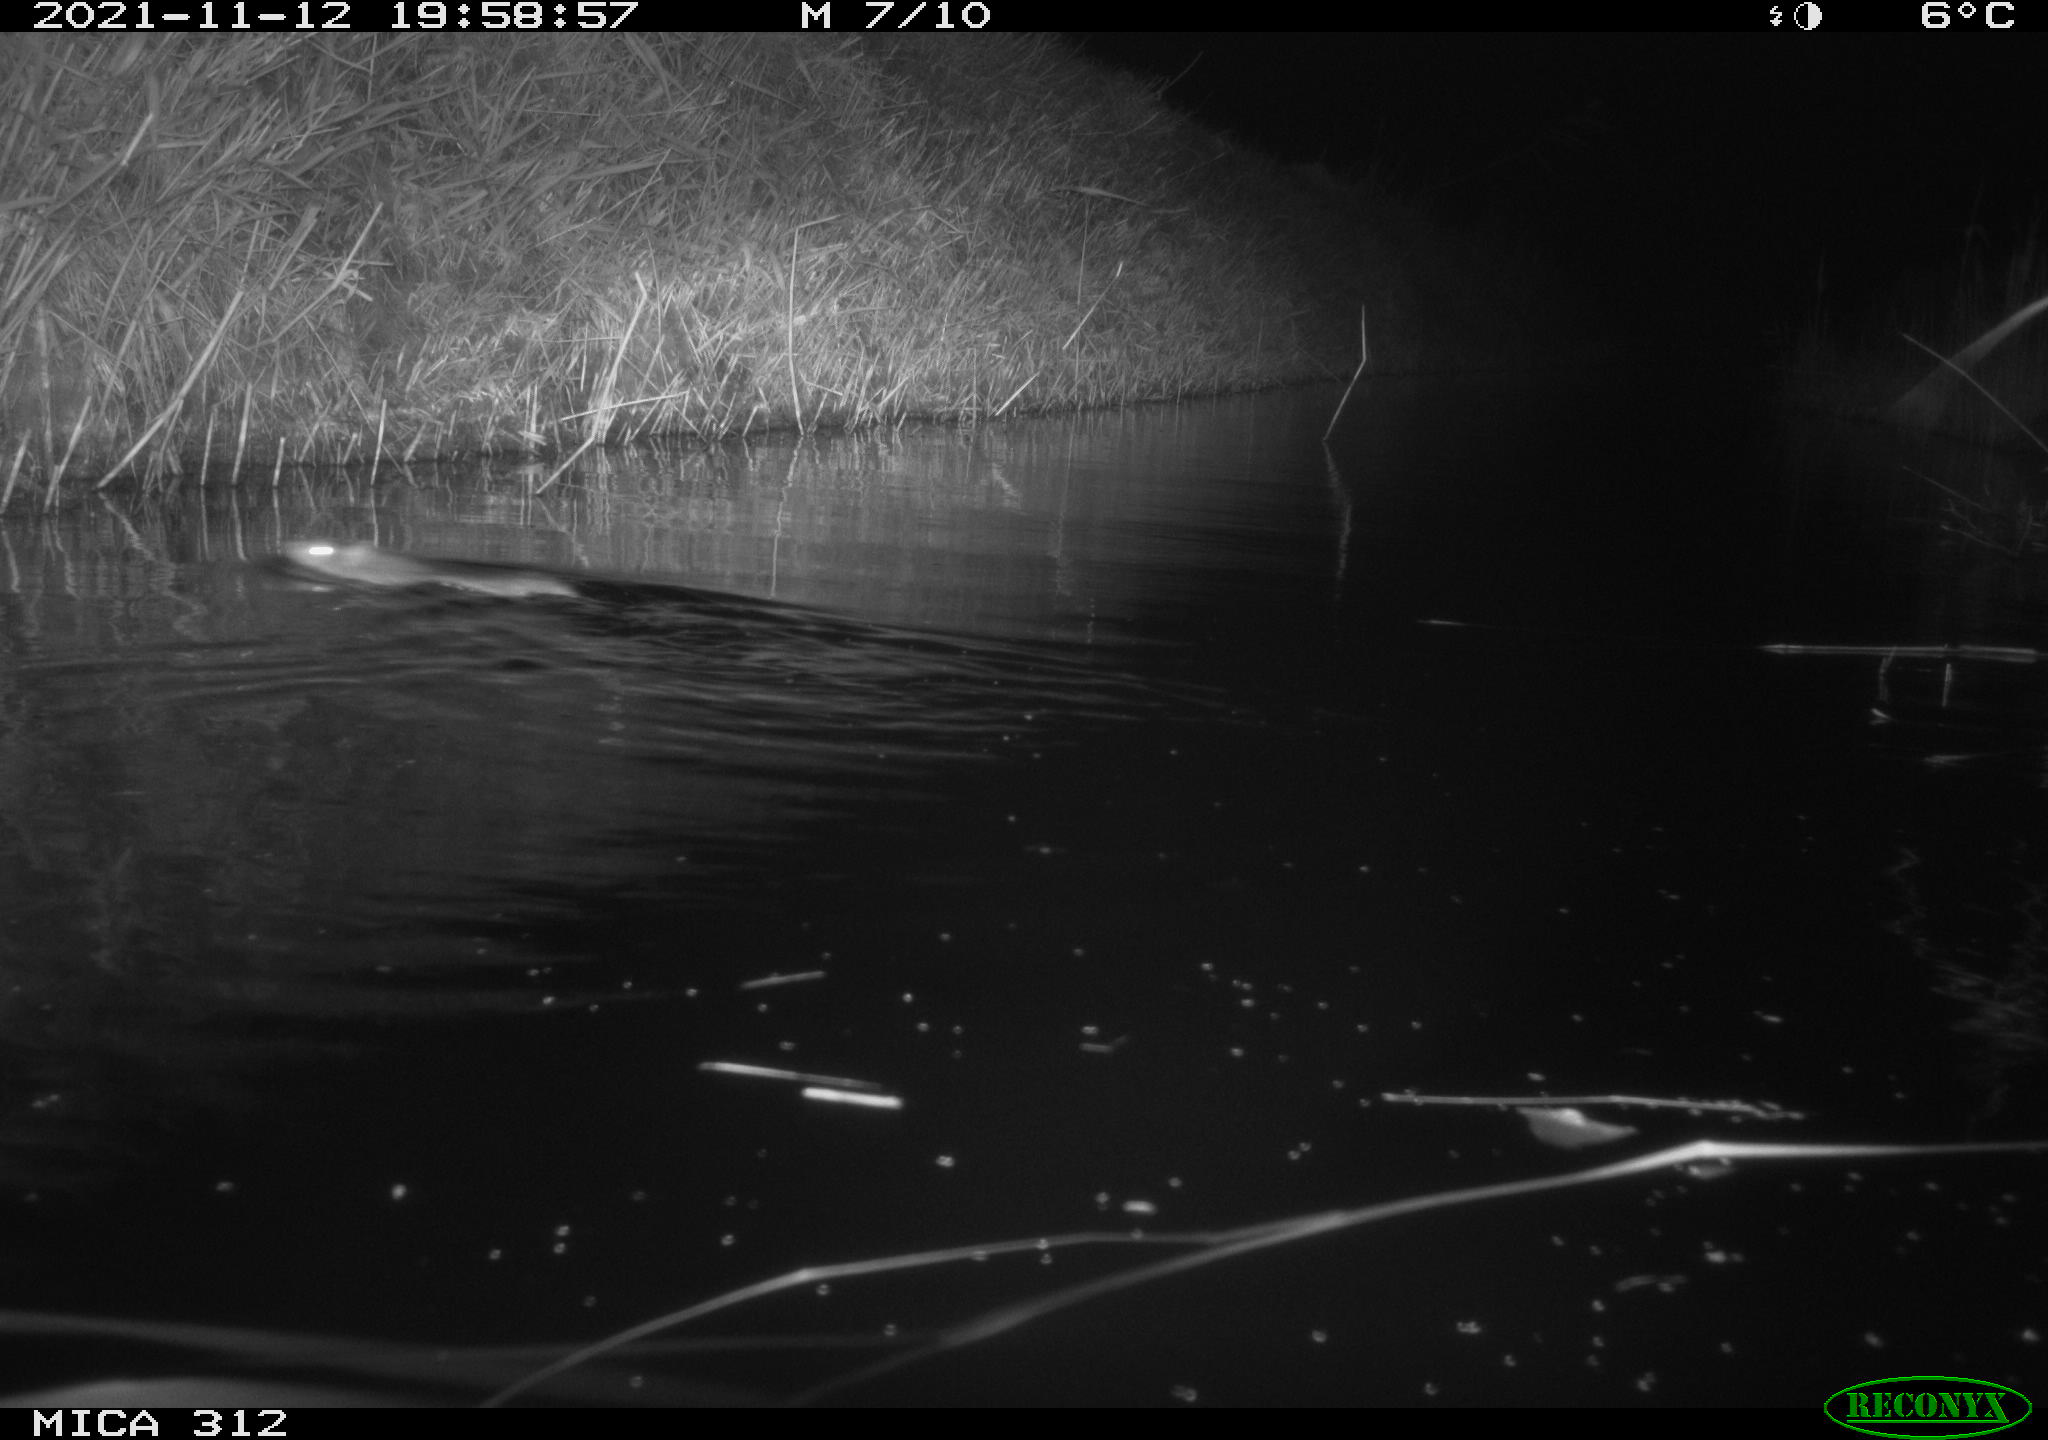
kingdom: Animalia
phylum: Chordata
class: Mammalia
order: Rodentia
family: Muridae
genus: Rattus
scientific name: Rattus norvegicus
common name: Brown rat
